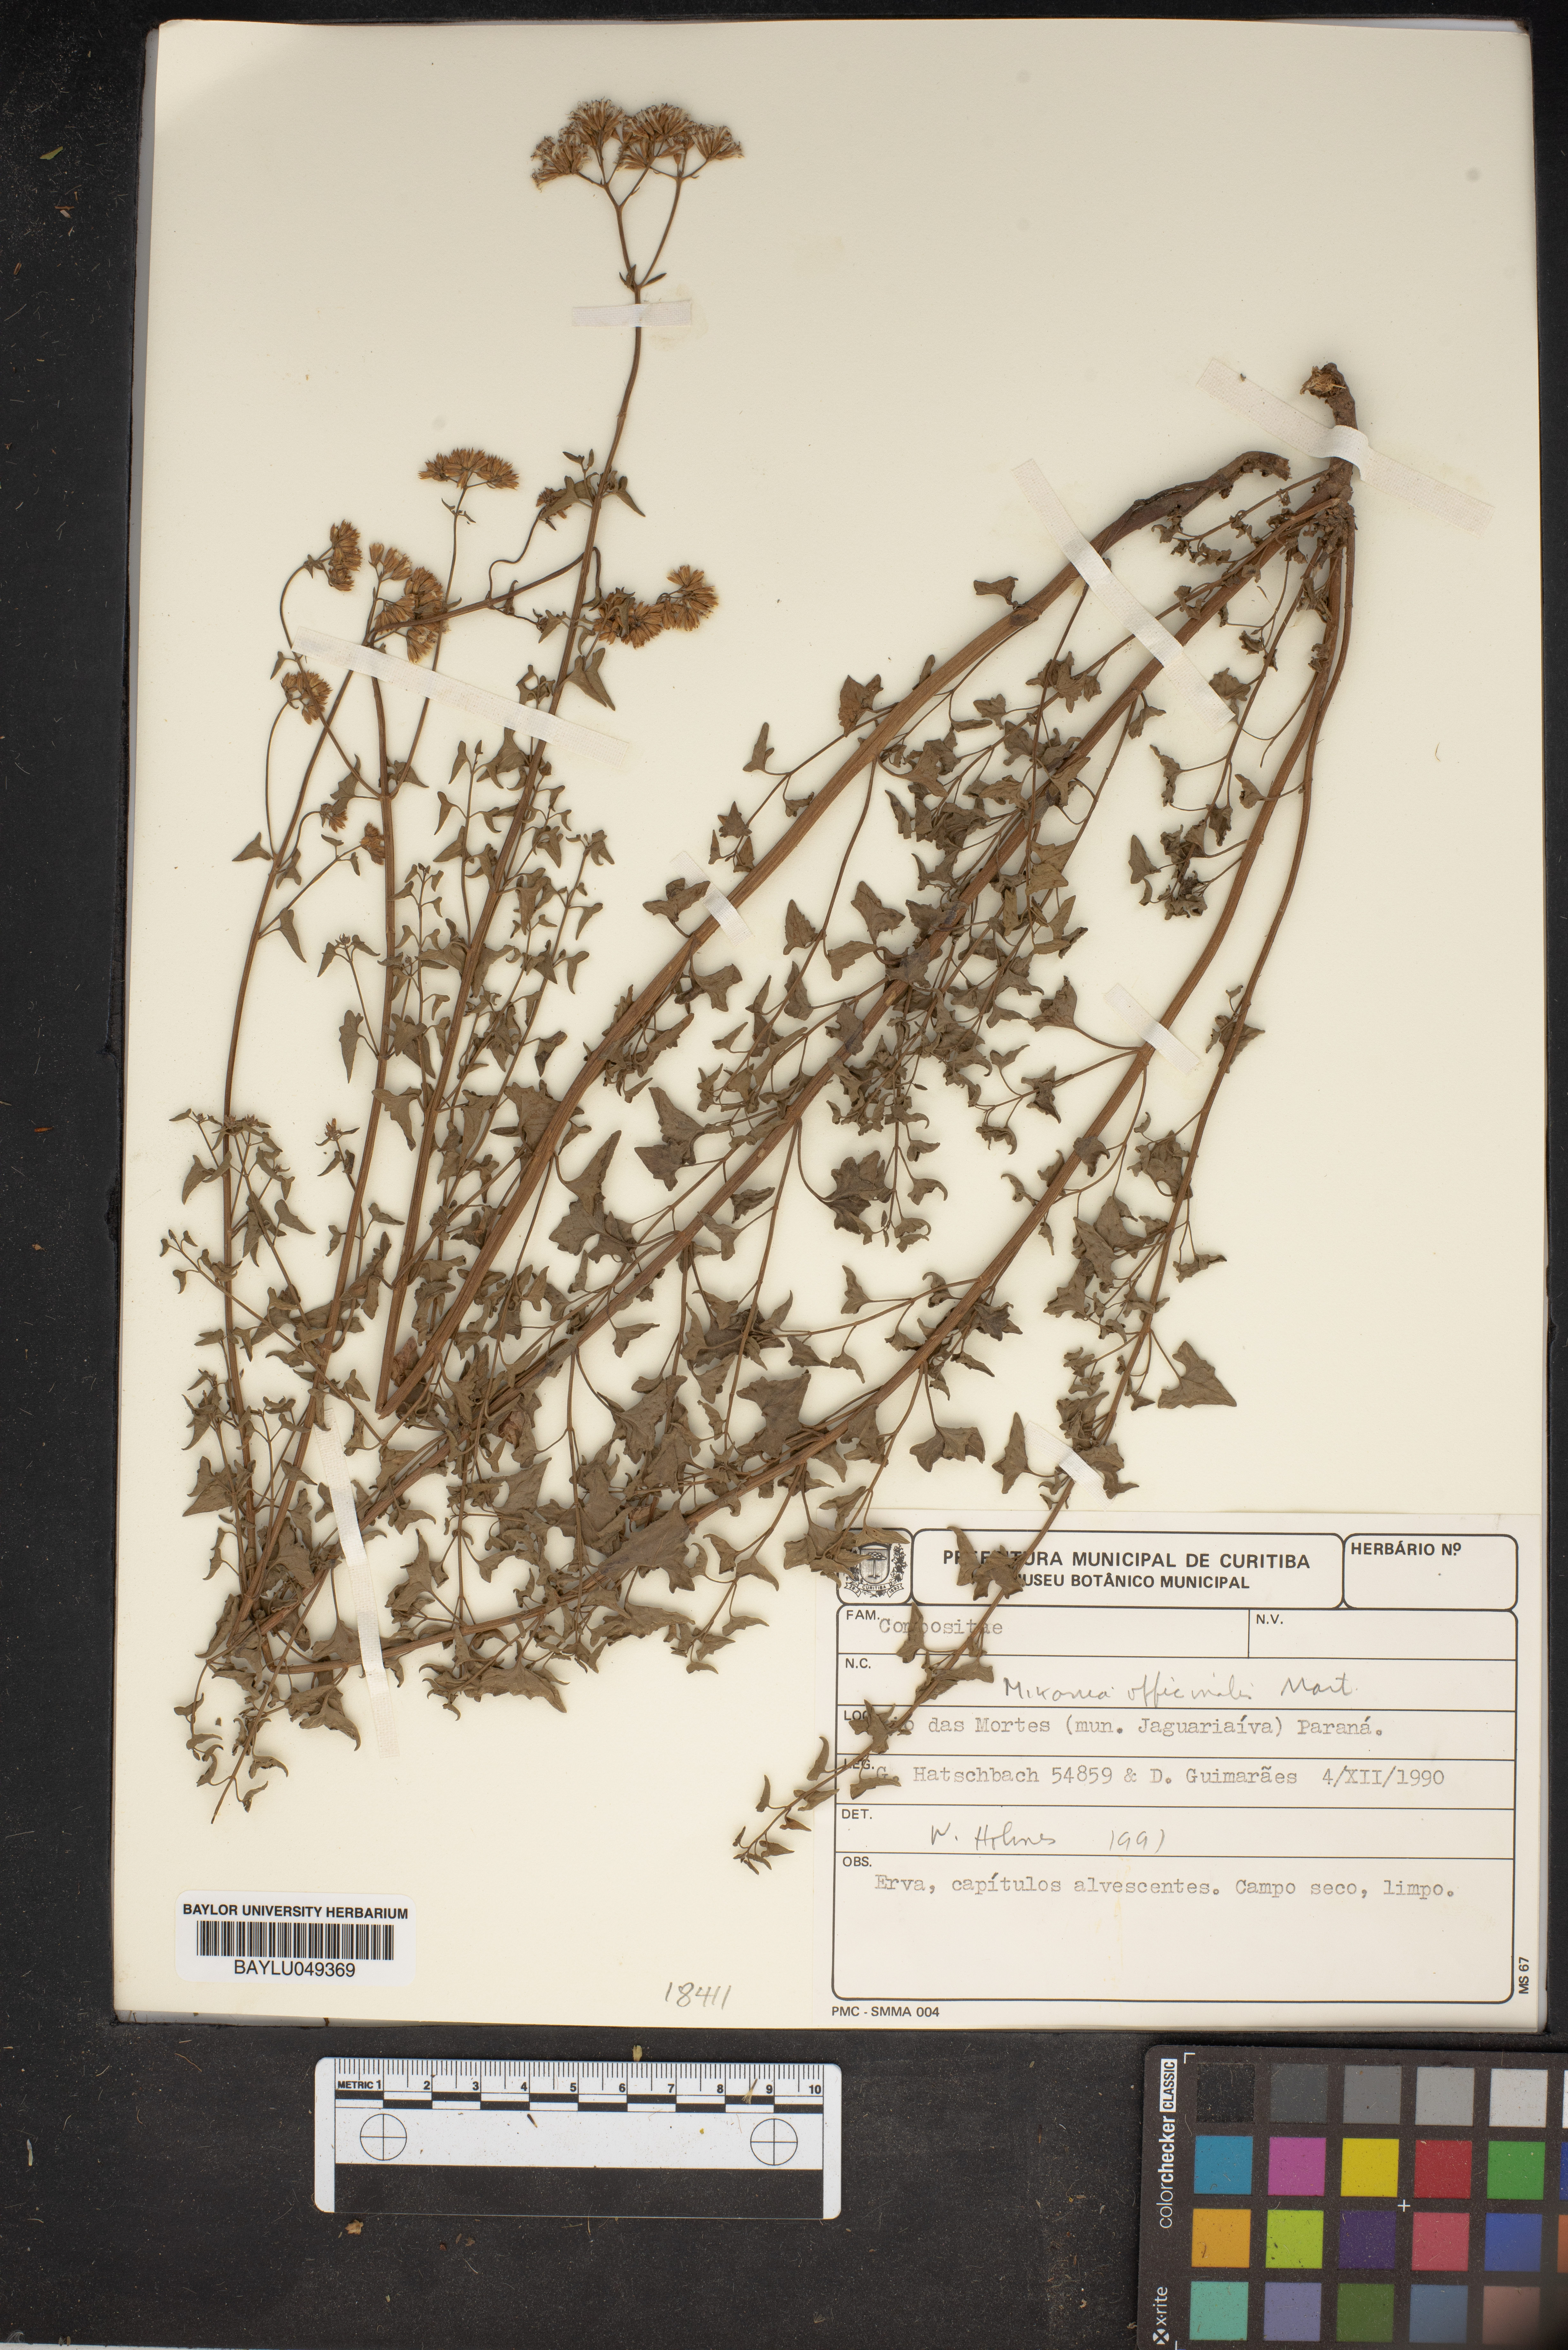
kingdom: Plantae
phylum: Tracheophyta
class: Magnoliopsida
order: Asterales
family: Asteraceae
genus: Mikania
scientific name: Mikania officinalis
